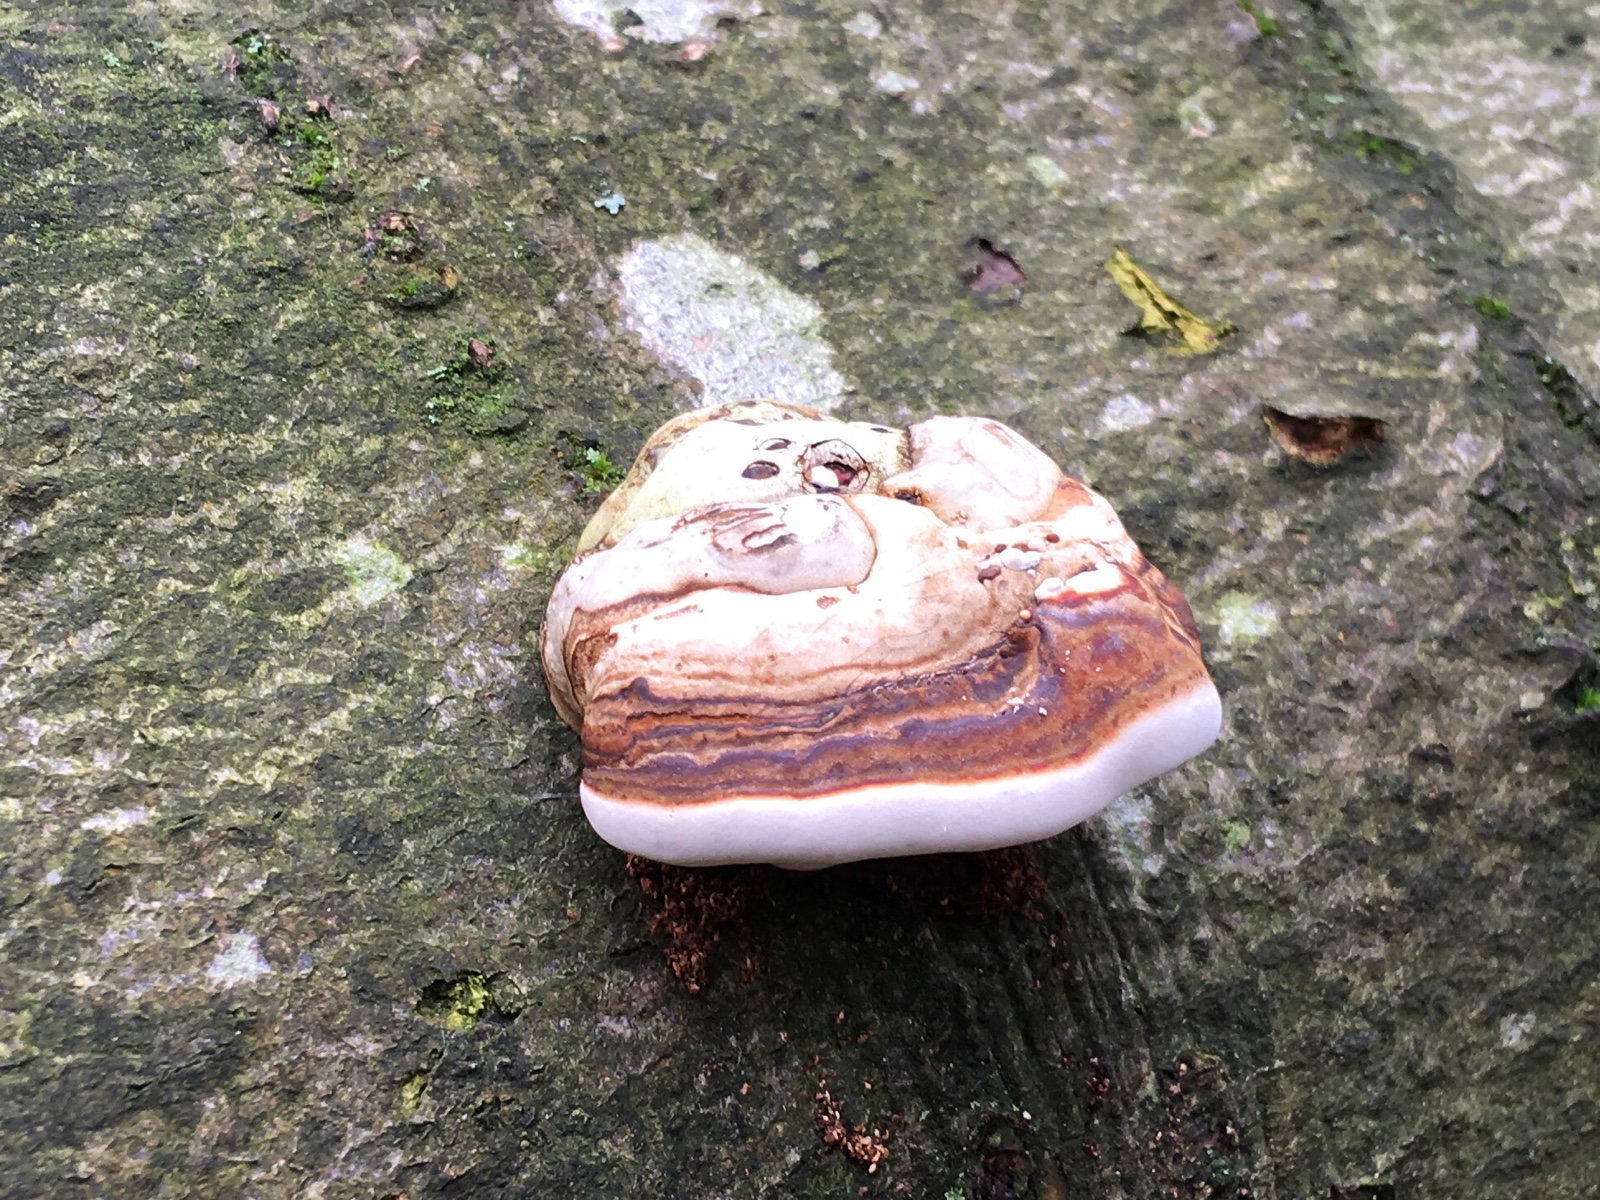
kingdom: Fungi
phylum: Basidiomycota
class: Agaricomycetes
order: Polyporales
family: Polyporaceae
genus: Fomes
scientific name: Fomes fomentarius
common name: tøndersvamp
